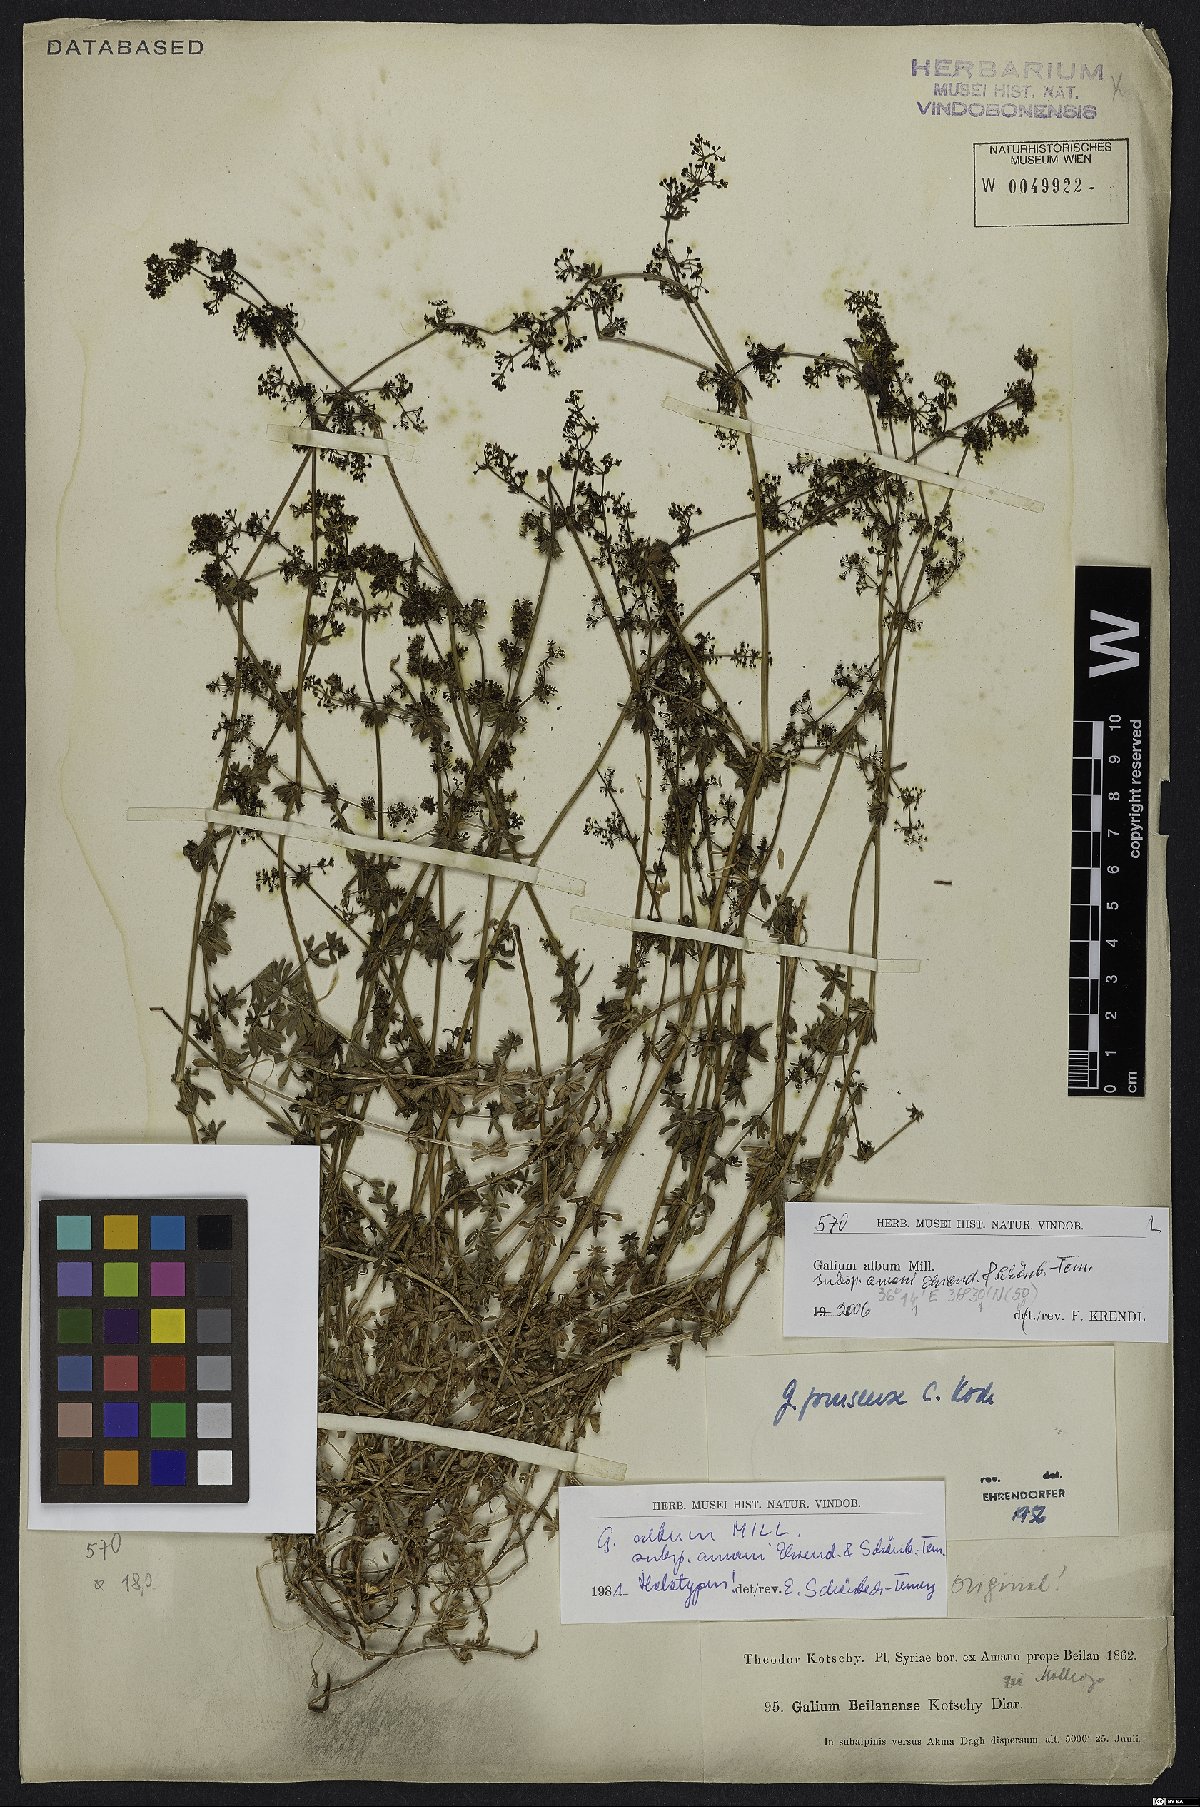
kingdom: Plantae
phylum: Tracheophyta
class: Magnoliopsida
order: Gentianales
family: Rubiaceae
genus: Galium
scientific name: Galium album
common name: White bedstraw
